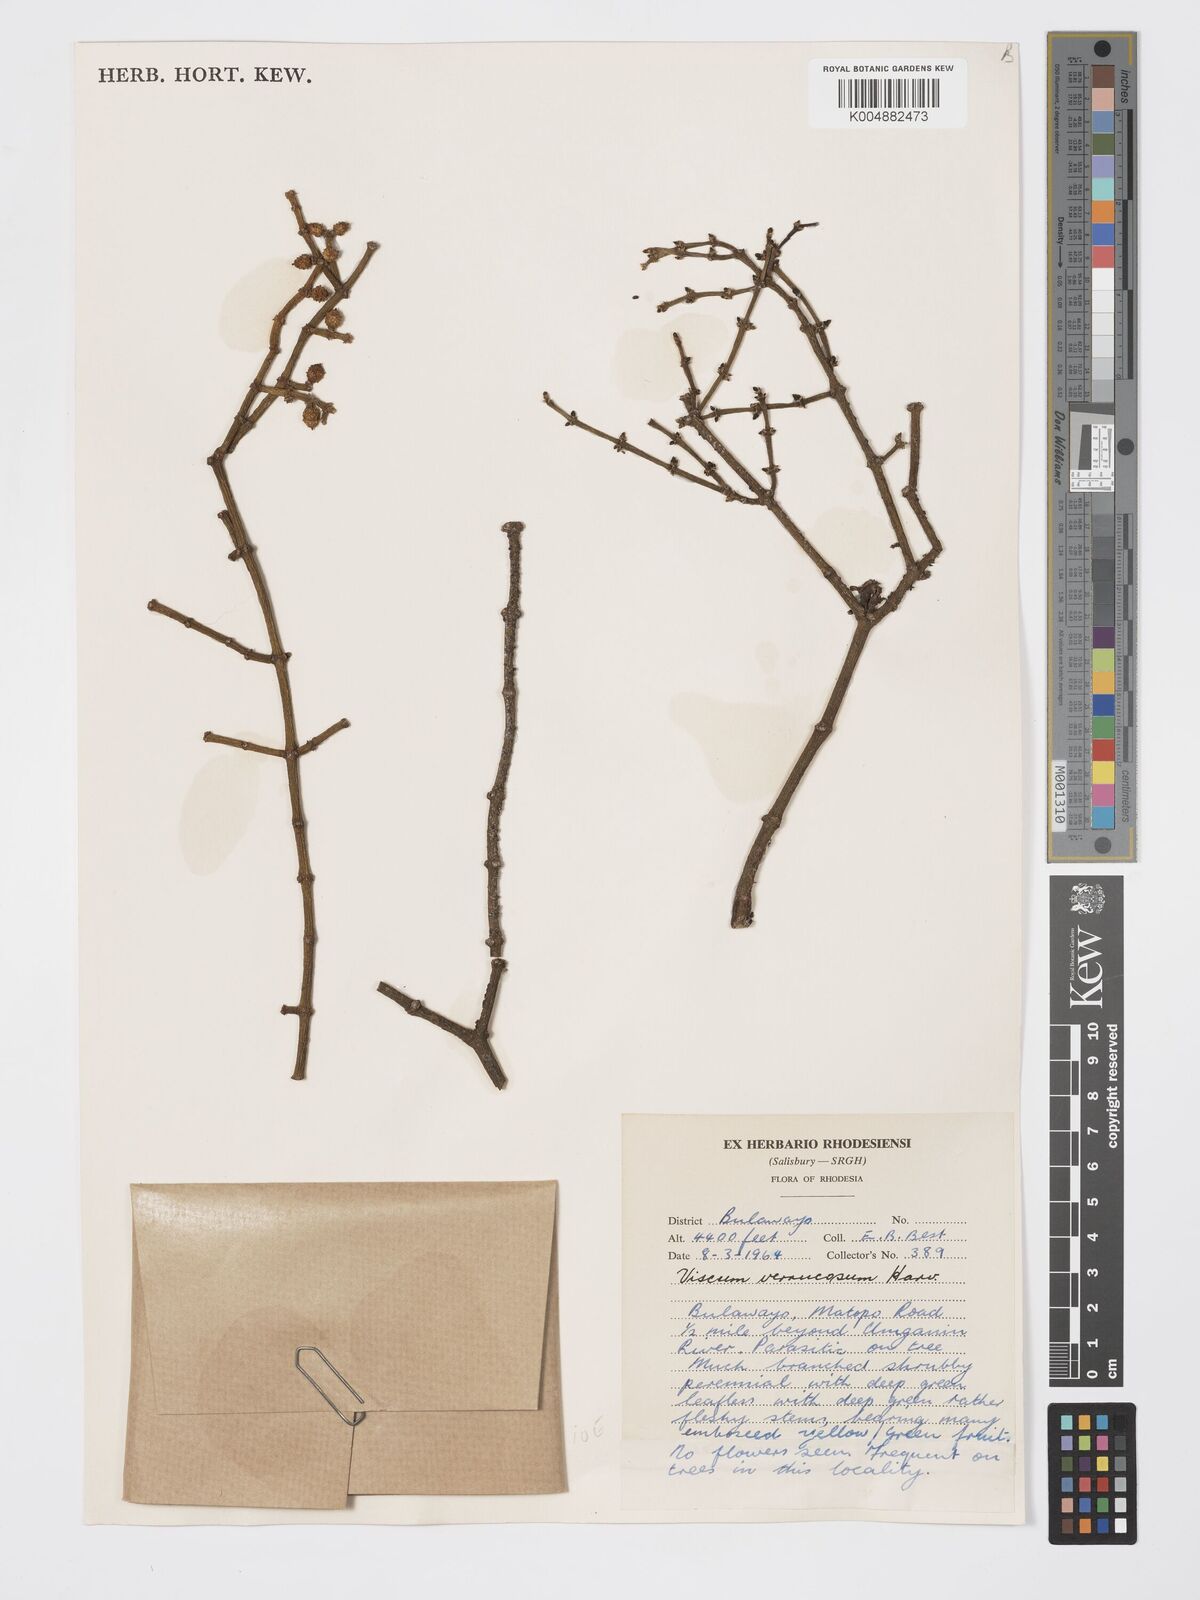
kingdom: Plantae
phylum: Tracheophyta
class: Magnoliopsida
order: Santalales
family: Viscaceae
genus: Viscum
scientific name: Viscum verrucosum
